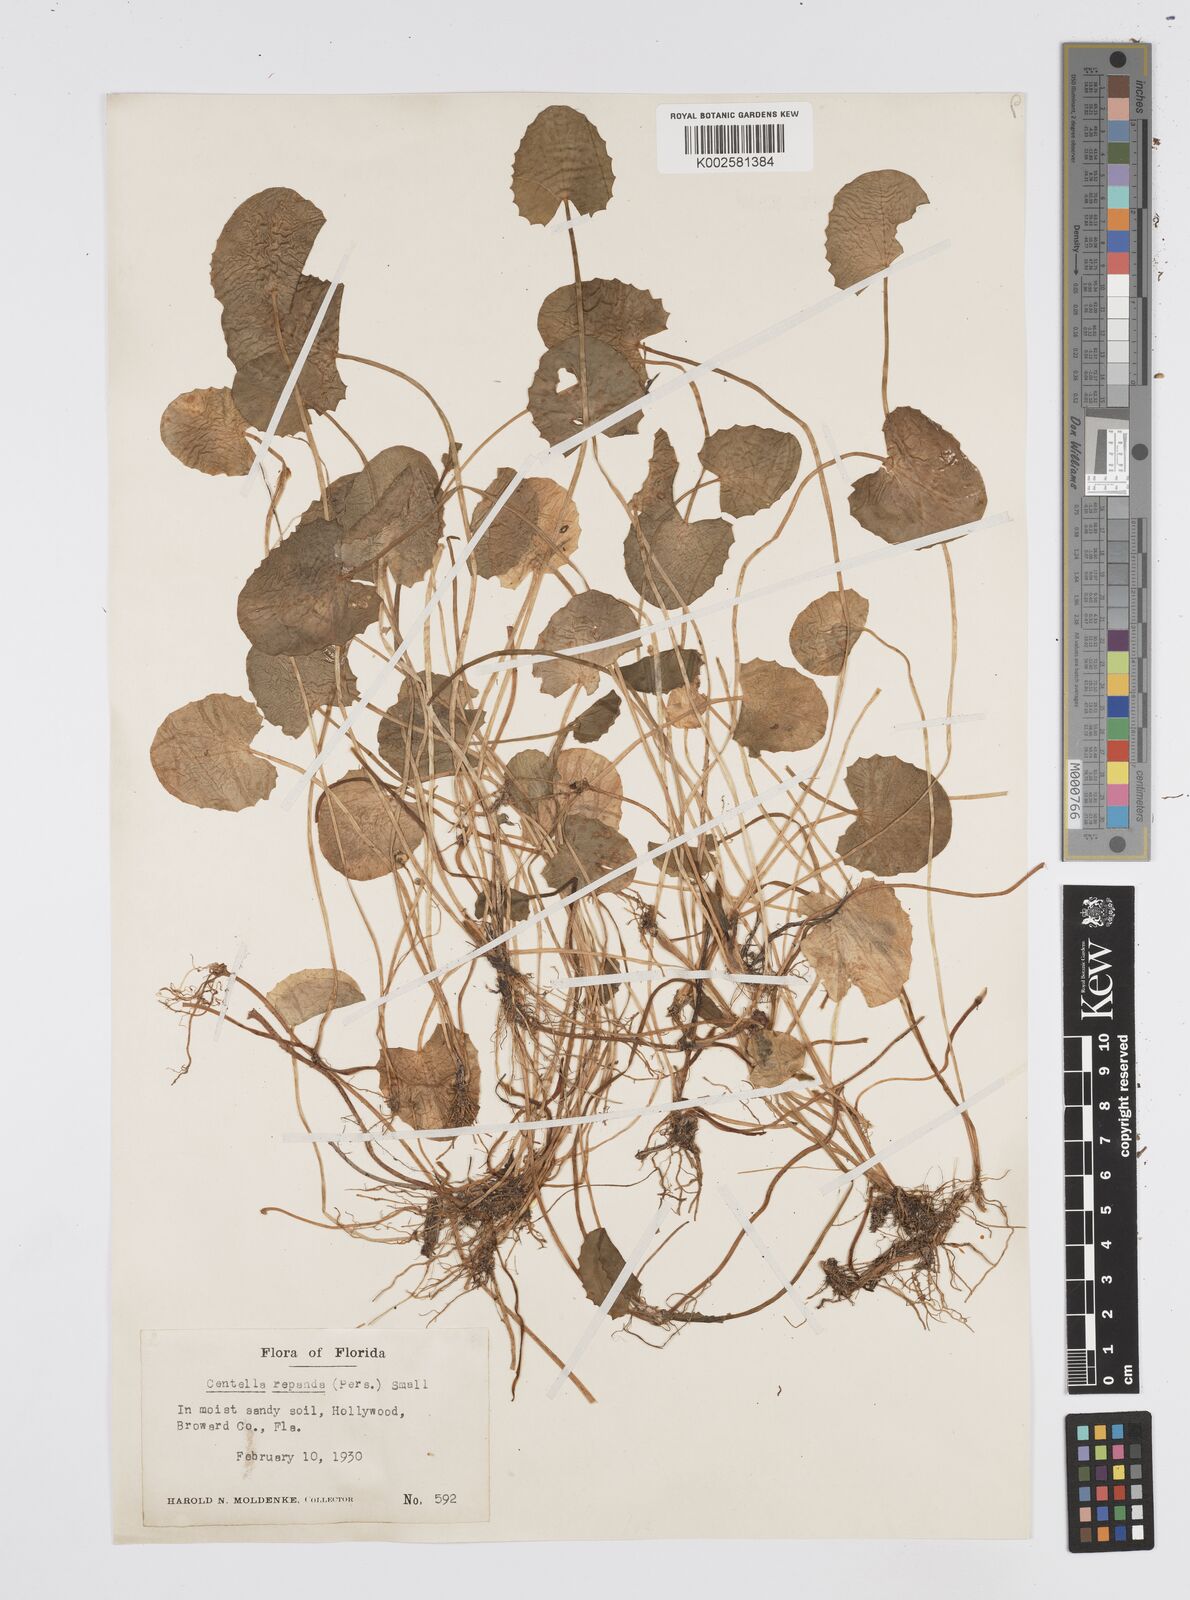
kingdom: Plantae
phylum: Tracheophyta
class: Magnoliopsida
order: Apiales
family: Apiaceae
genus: Centella
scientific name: Centella erecta
